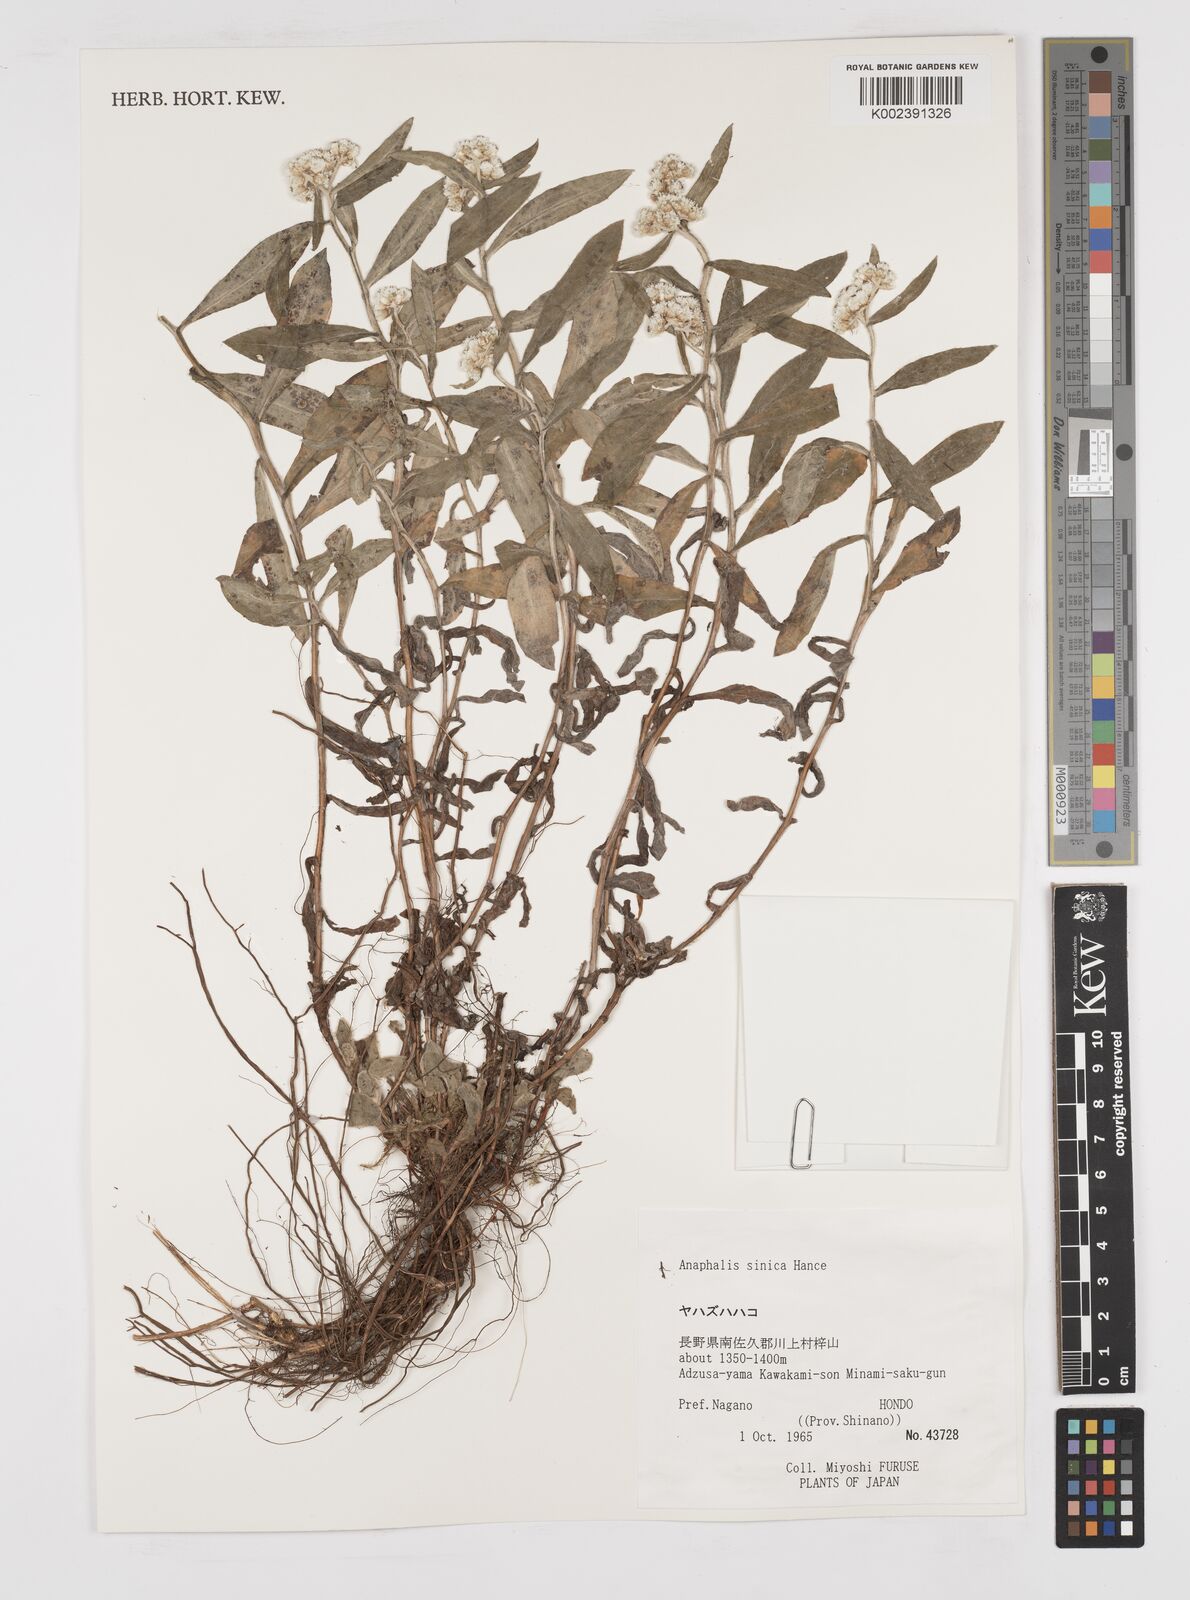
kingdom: Plantae
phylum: Tracheophyta
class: Magnoliopsida
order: Asterales
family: Asteraceae
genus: Anaphalis
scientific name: Anaphalis sinica
